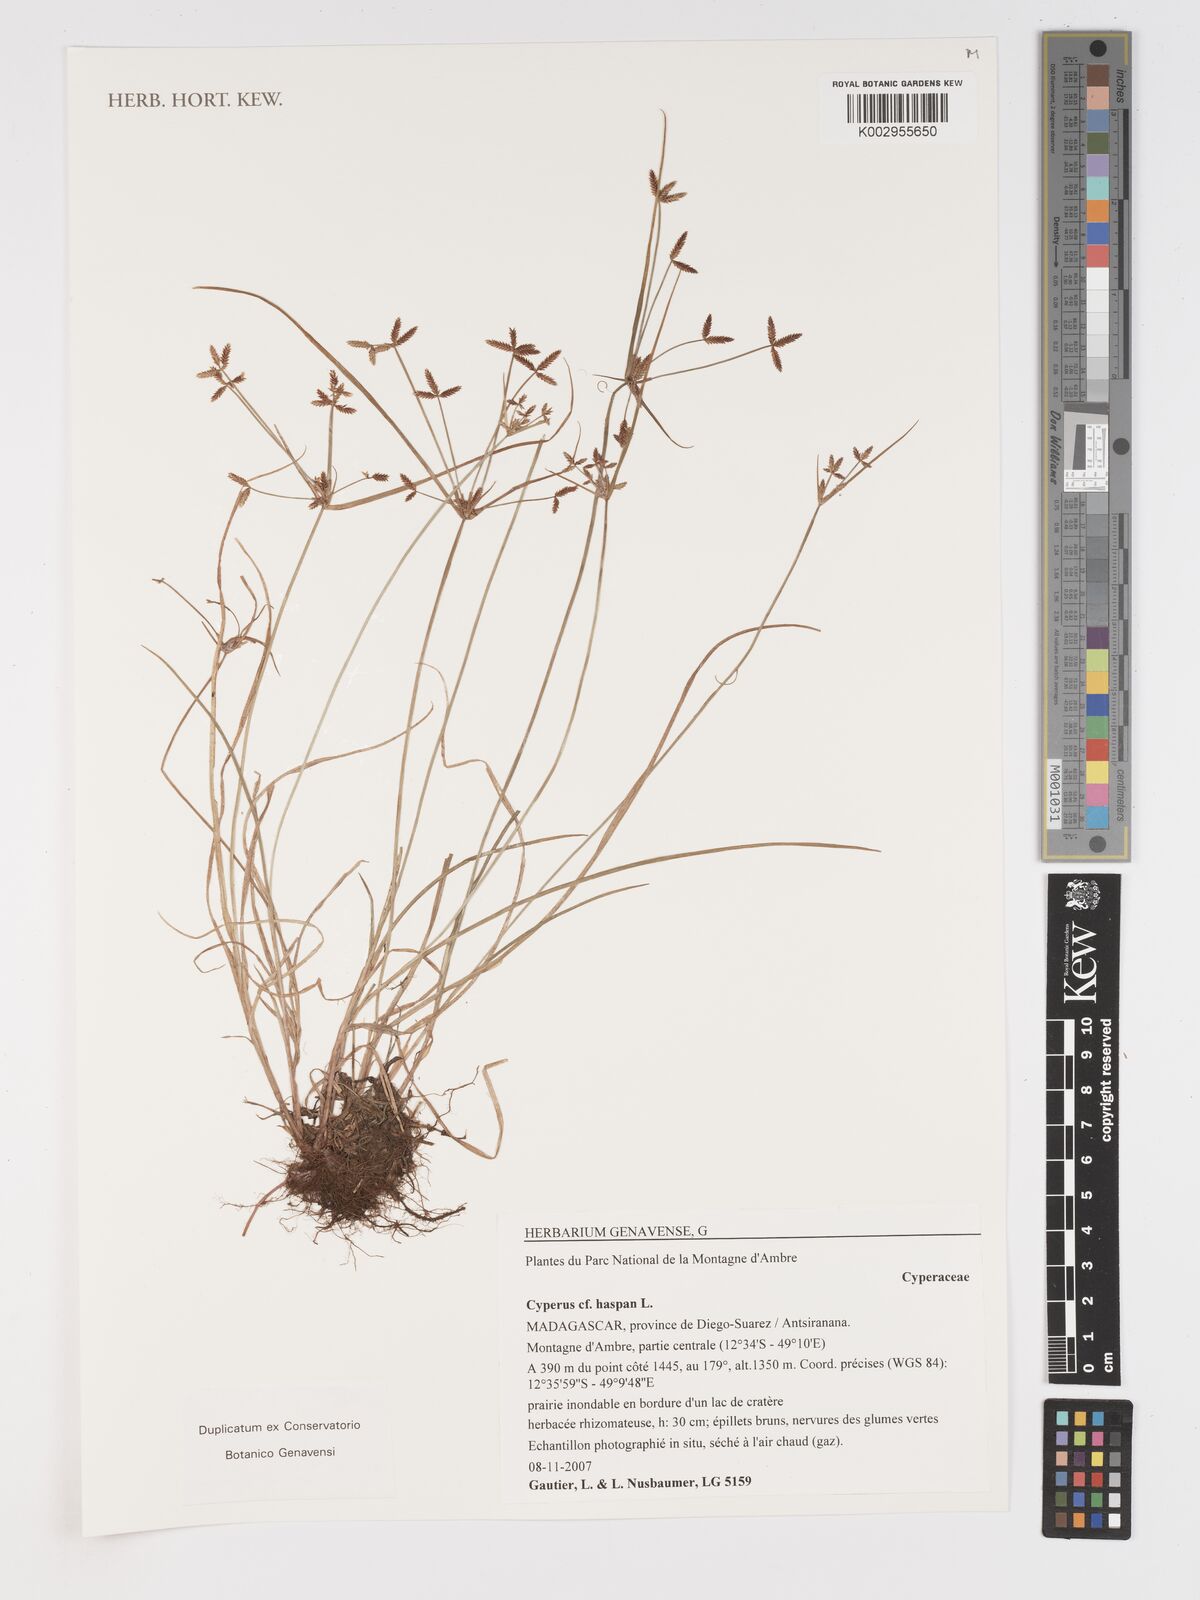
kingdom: Plantae
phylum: Tracheophyta
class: Liliopsida
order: Poales
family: Cyperaceae
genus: Cyperus
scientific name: Cyperus haspan
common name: Haspan flatsedge
